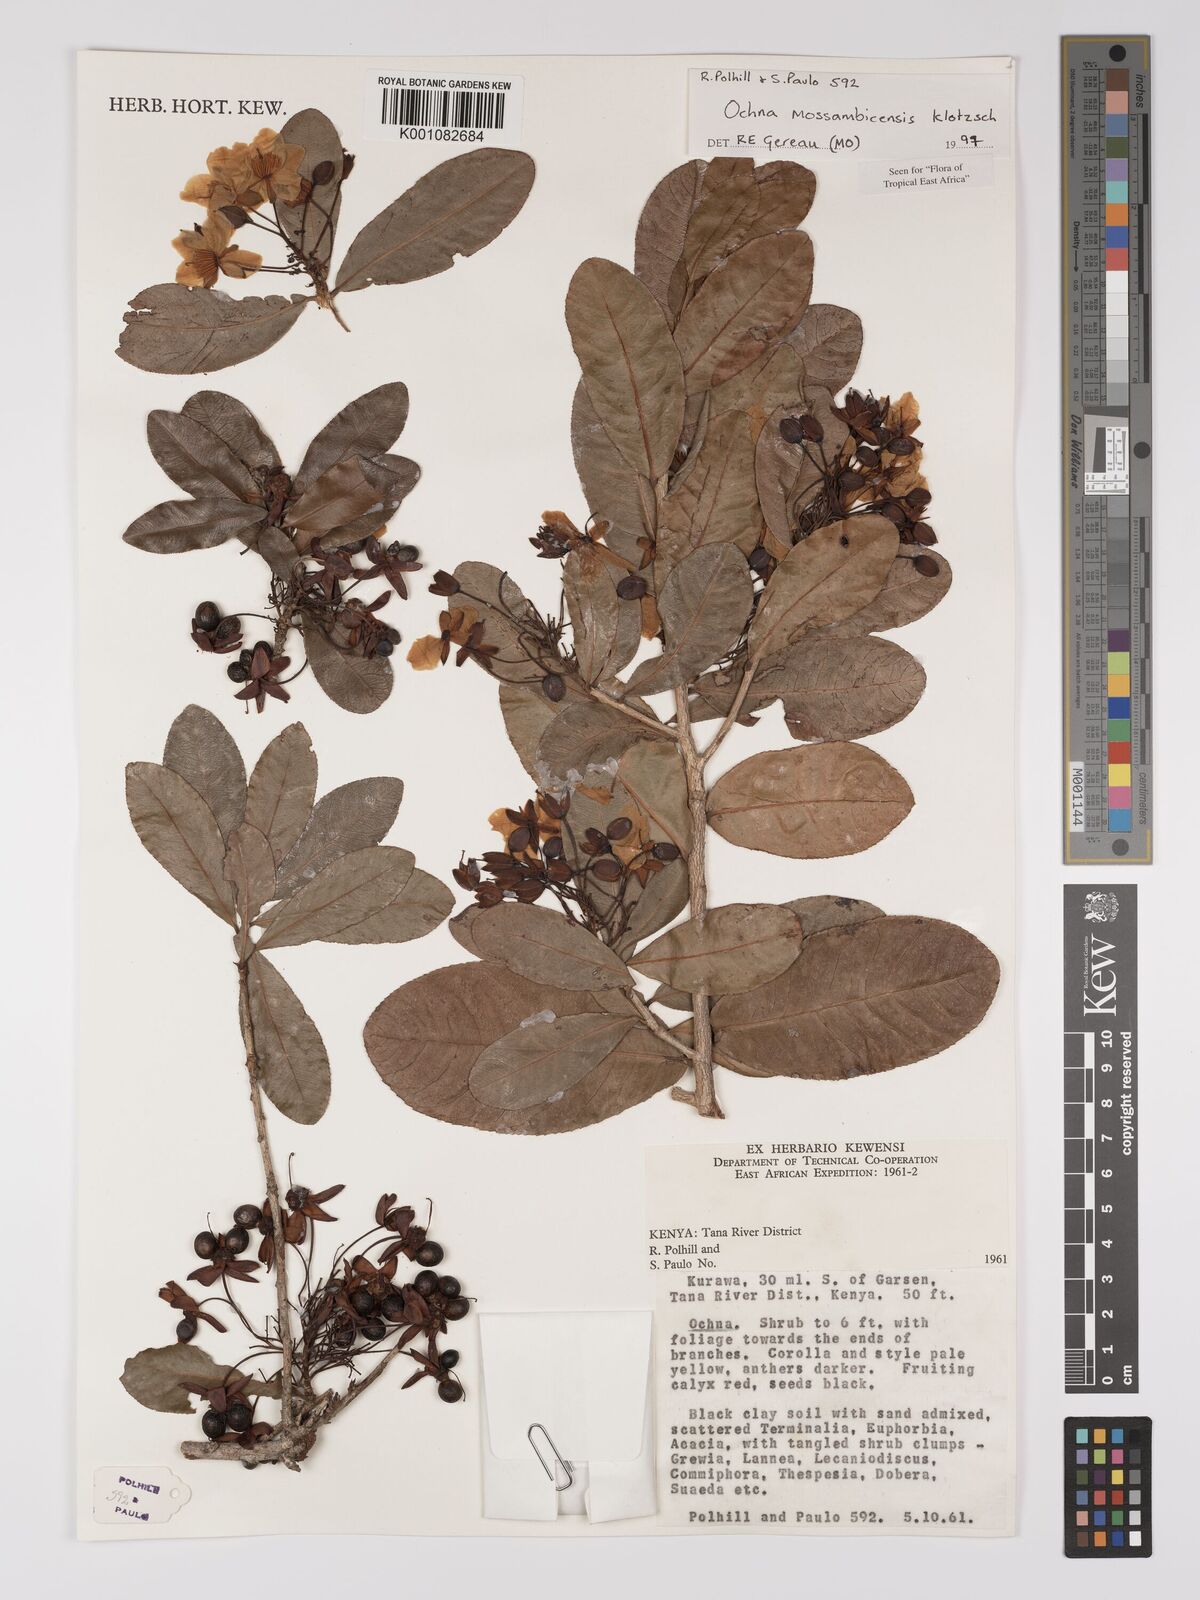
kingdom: Plantae
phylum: Tracheophyta
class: Magnoliopsida
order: Malpighiales
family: Ochnaceae
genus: Ochna
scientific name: Ochna atropurpurea
